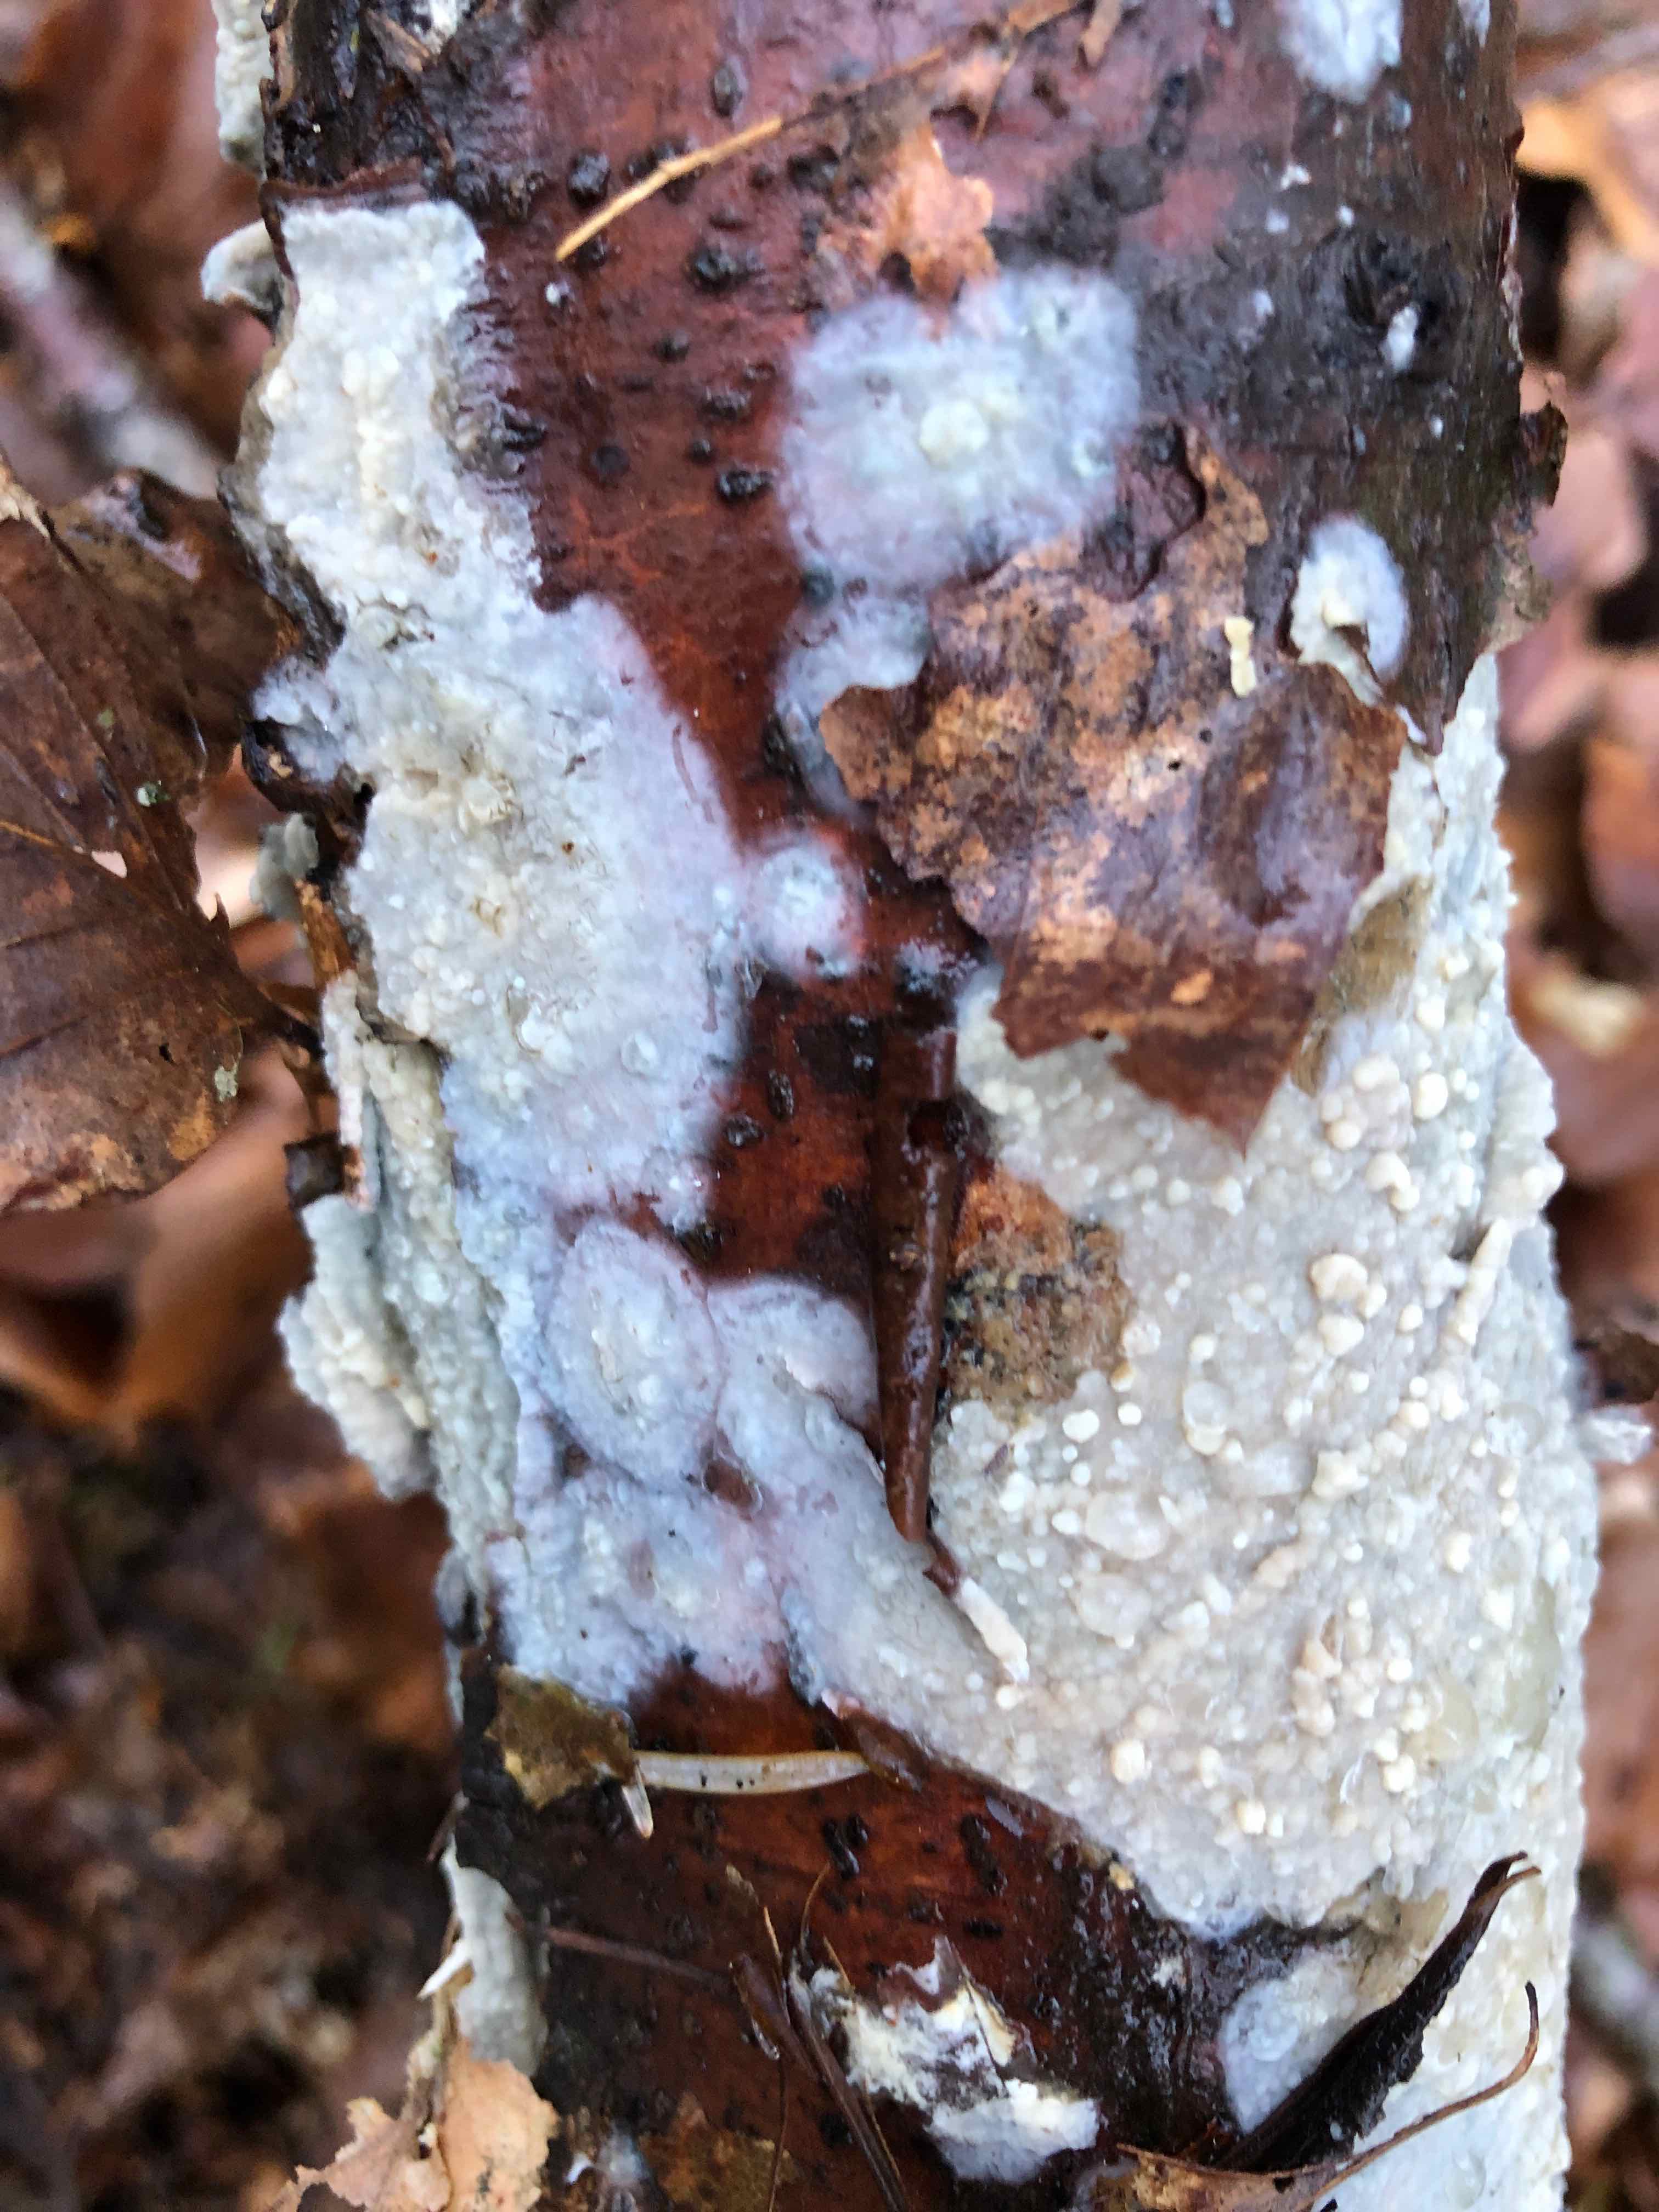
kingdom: Fungi
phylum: Basidiomycota
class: Agaricomycetes
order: Agaricales
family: Radulomycetaceae
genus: Radulomyces
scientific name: Radulomyces confluens
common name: glat naftalinskind
